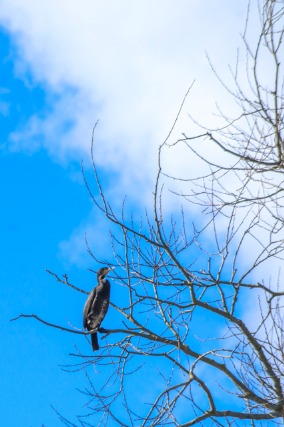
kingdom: Animalia
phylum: Chordata
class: Aves
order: Suliformes
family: Phalacrocoracidae
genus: Phalacrocorax
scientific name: Phalacrocorax carbo
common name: Skarv
